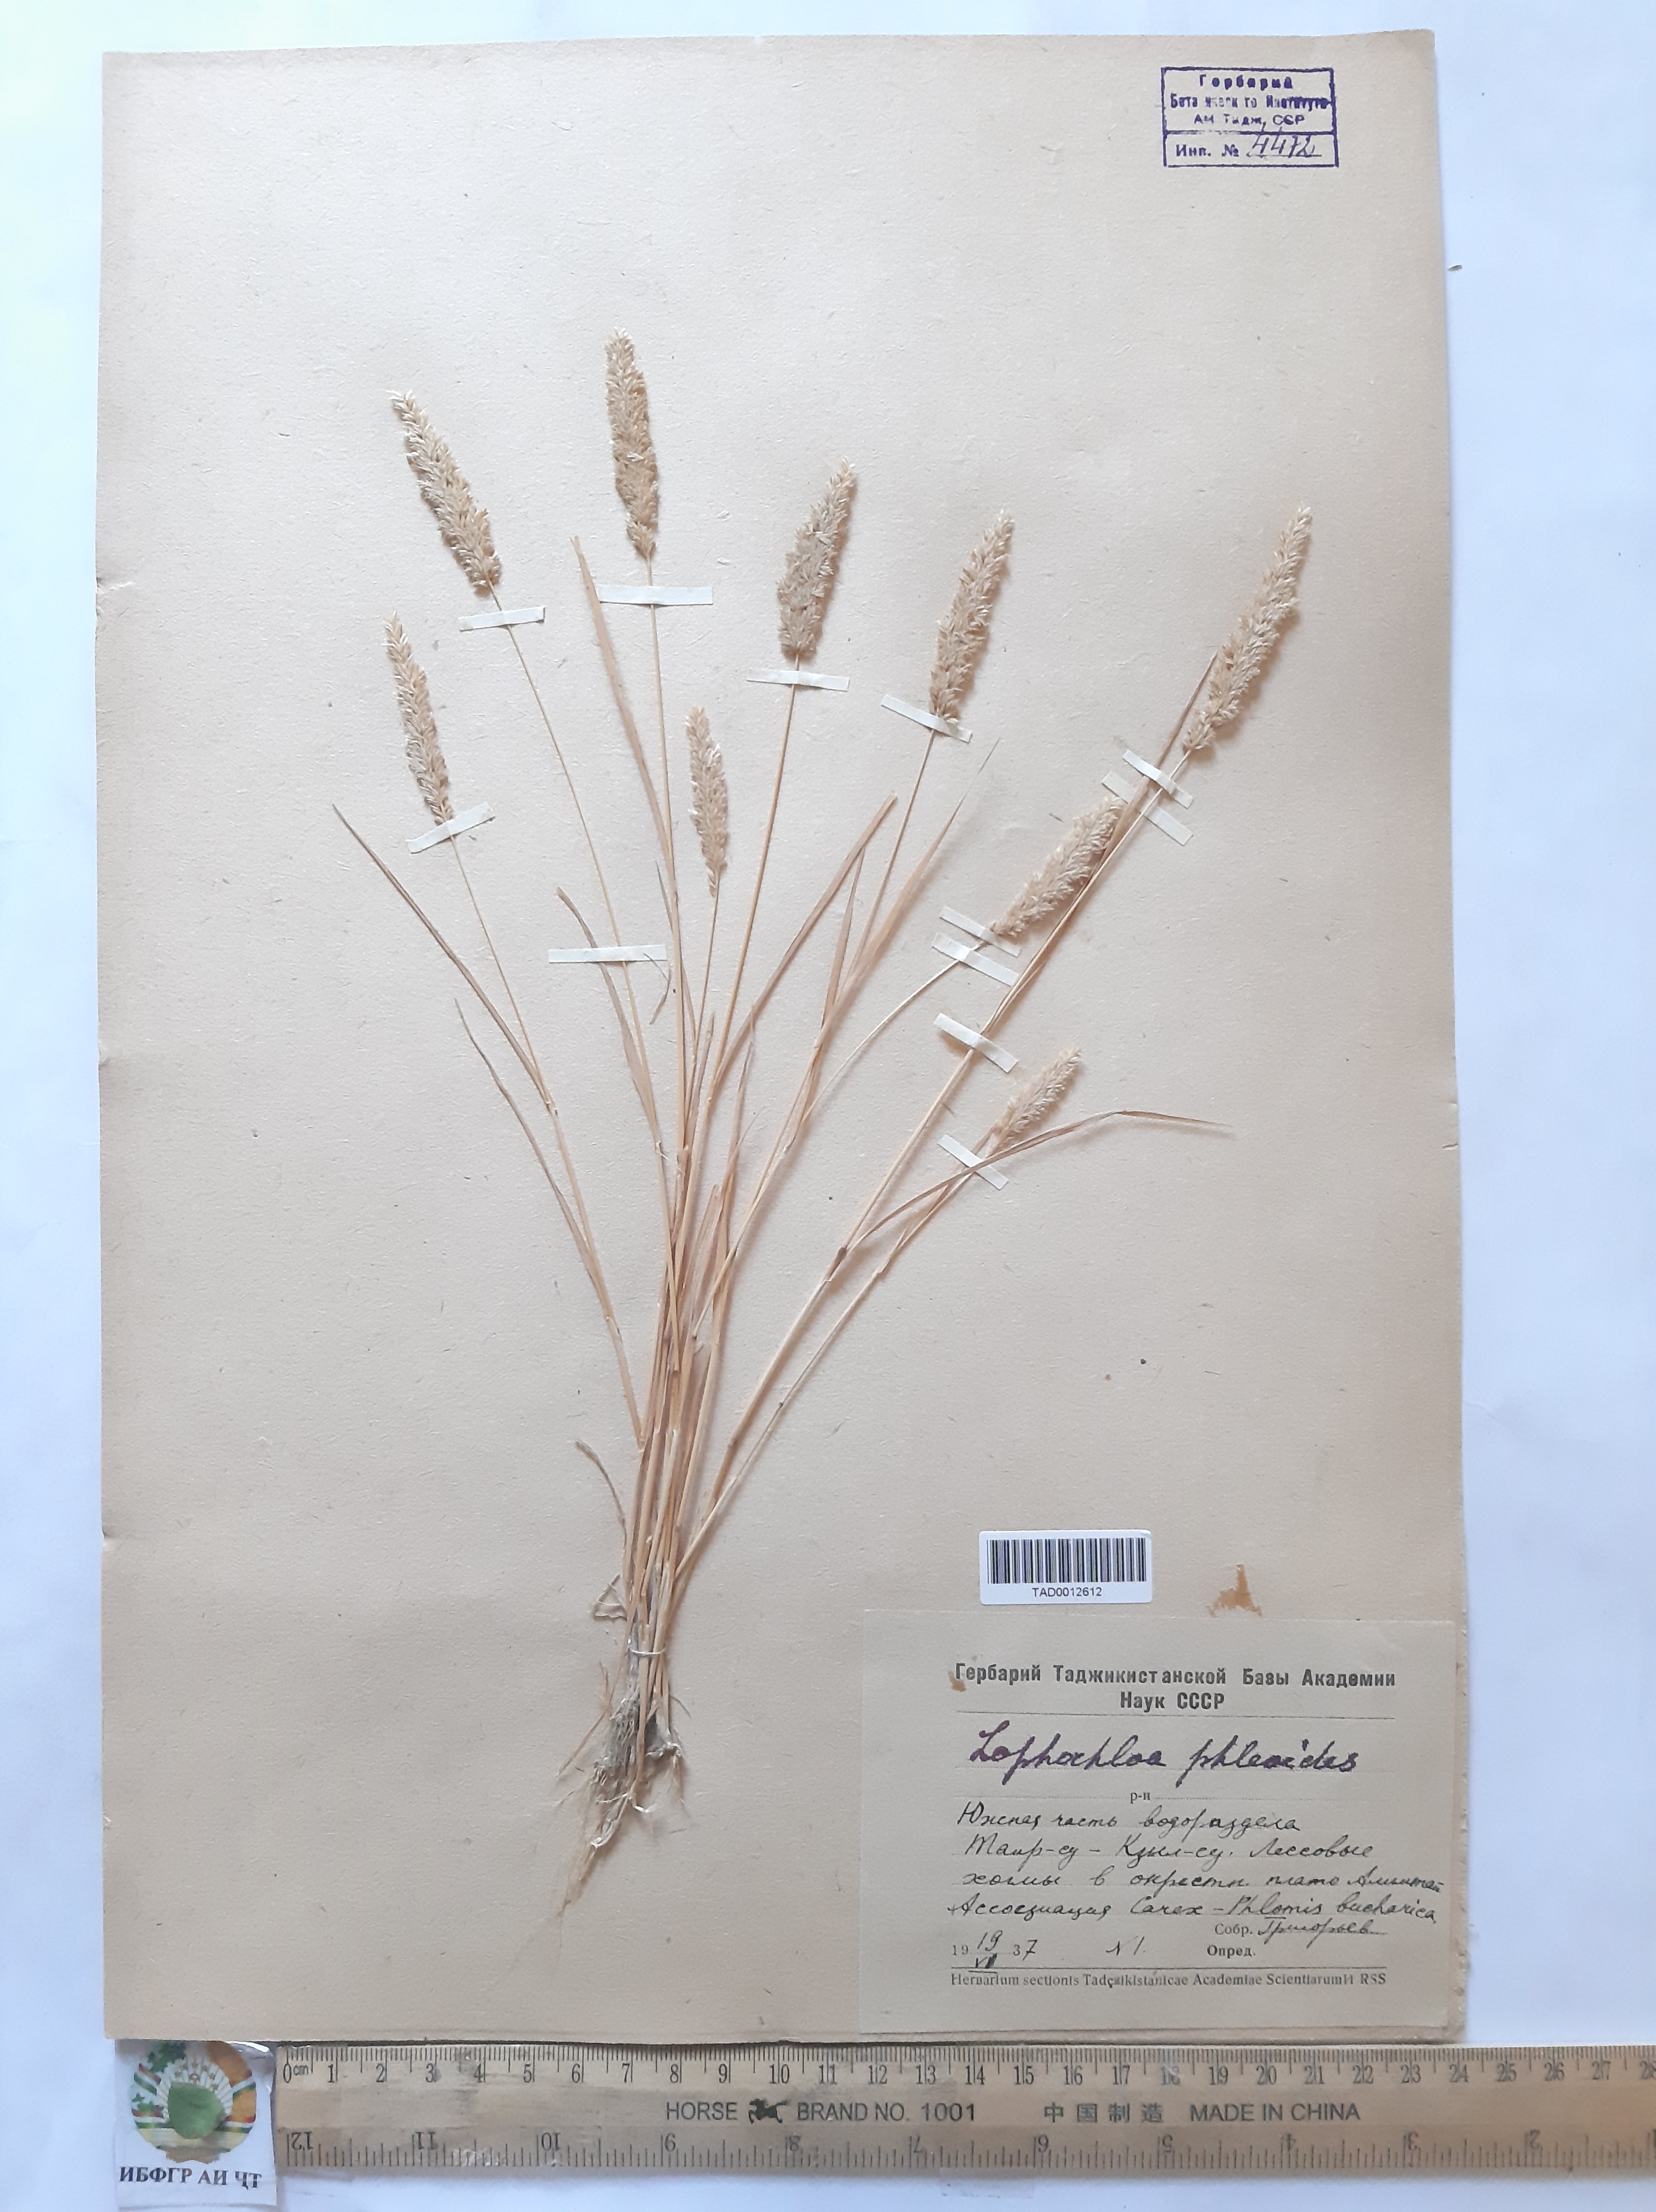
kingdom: Plantae
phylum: Tracheophyta
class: Liliopsida
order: Poales
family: Poaceae
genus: Rostraria
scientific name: Rostraria cristata
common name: Mediterranean hair-grass
